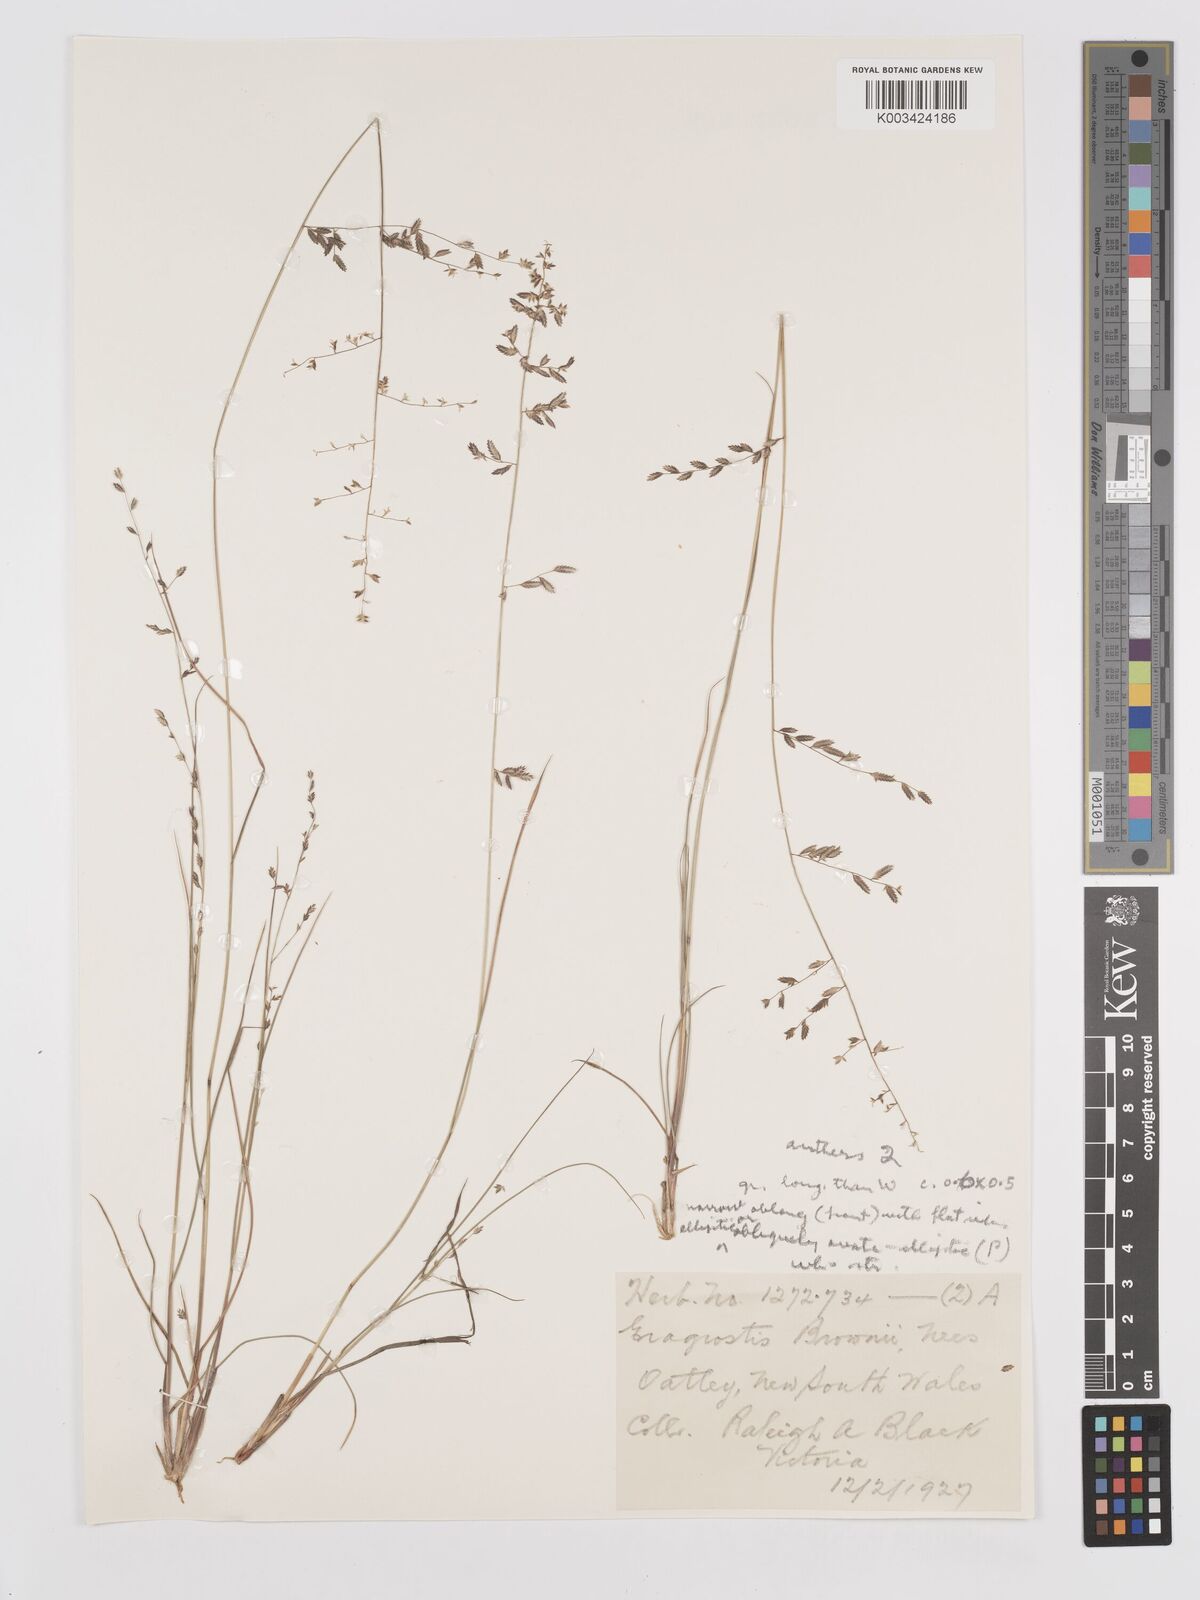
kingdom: Plantae
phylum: Tracheophyta
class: Liliopsida
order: Poales
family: Poaceae
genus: Eragrostis
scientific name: Eragrostis brownii
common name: Lovegrass
